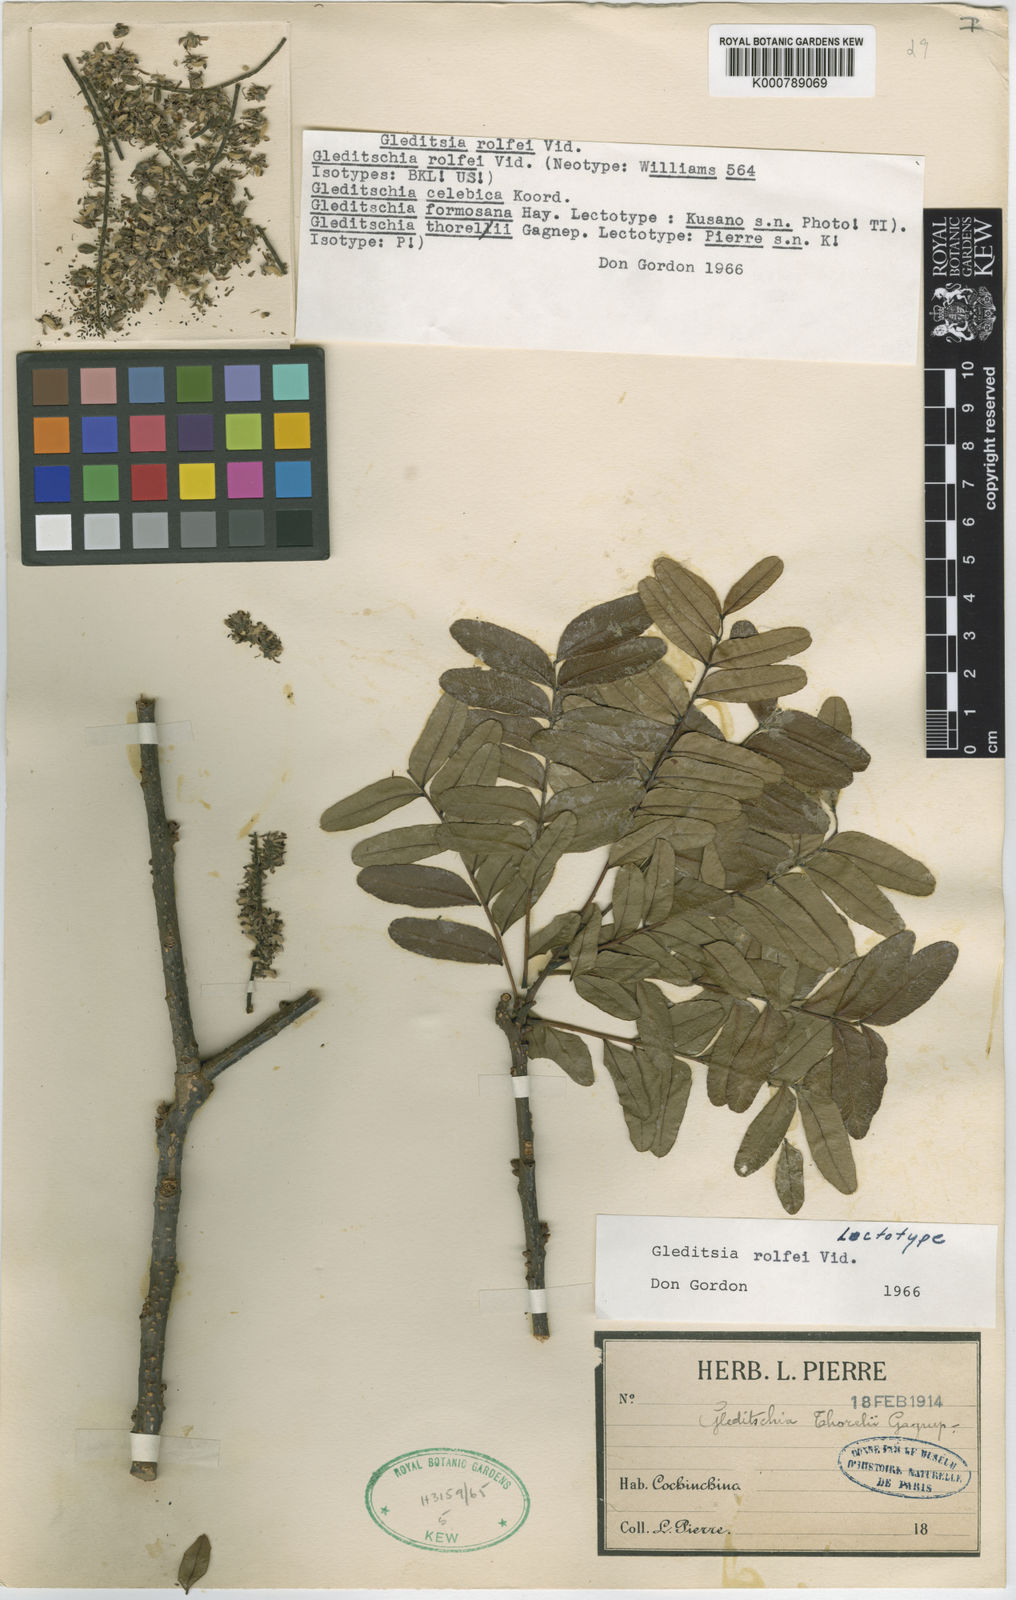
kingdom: Plantae
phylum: Tracheophyta
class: Magnoliopsida
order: Fabales
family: Fabaceae
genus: Gleditsia
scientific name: Gleditsia rolfei
